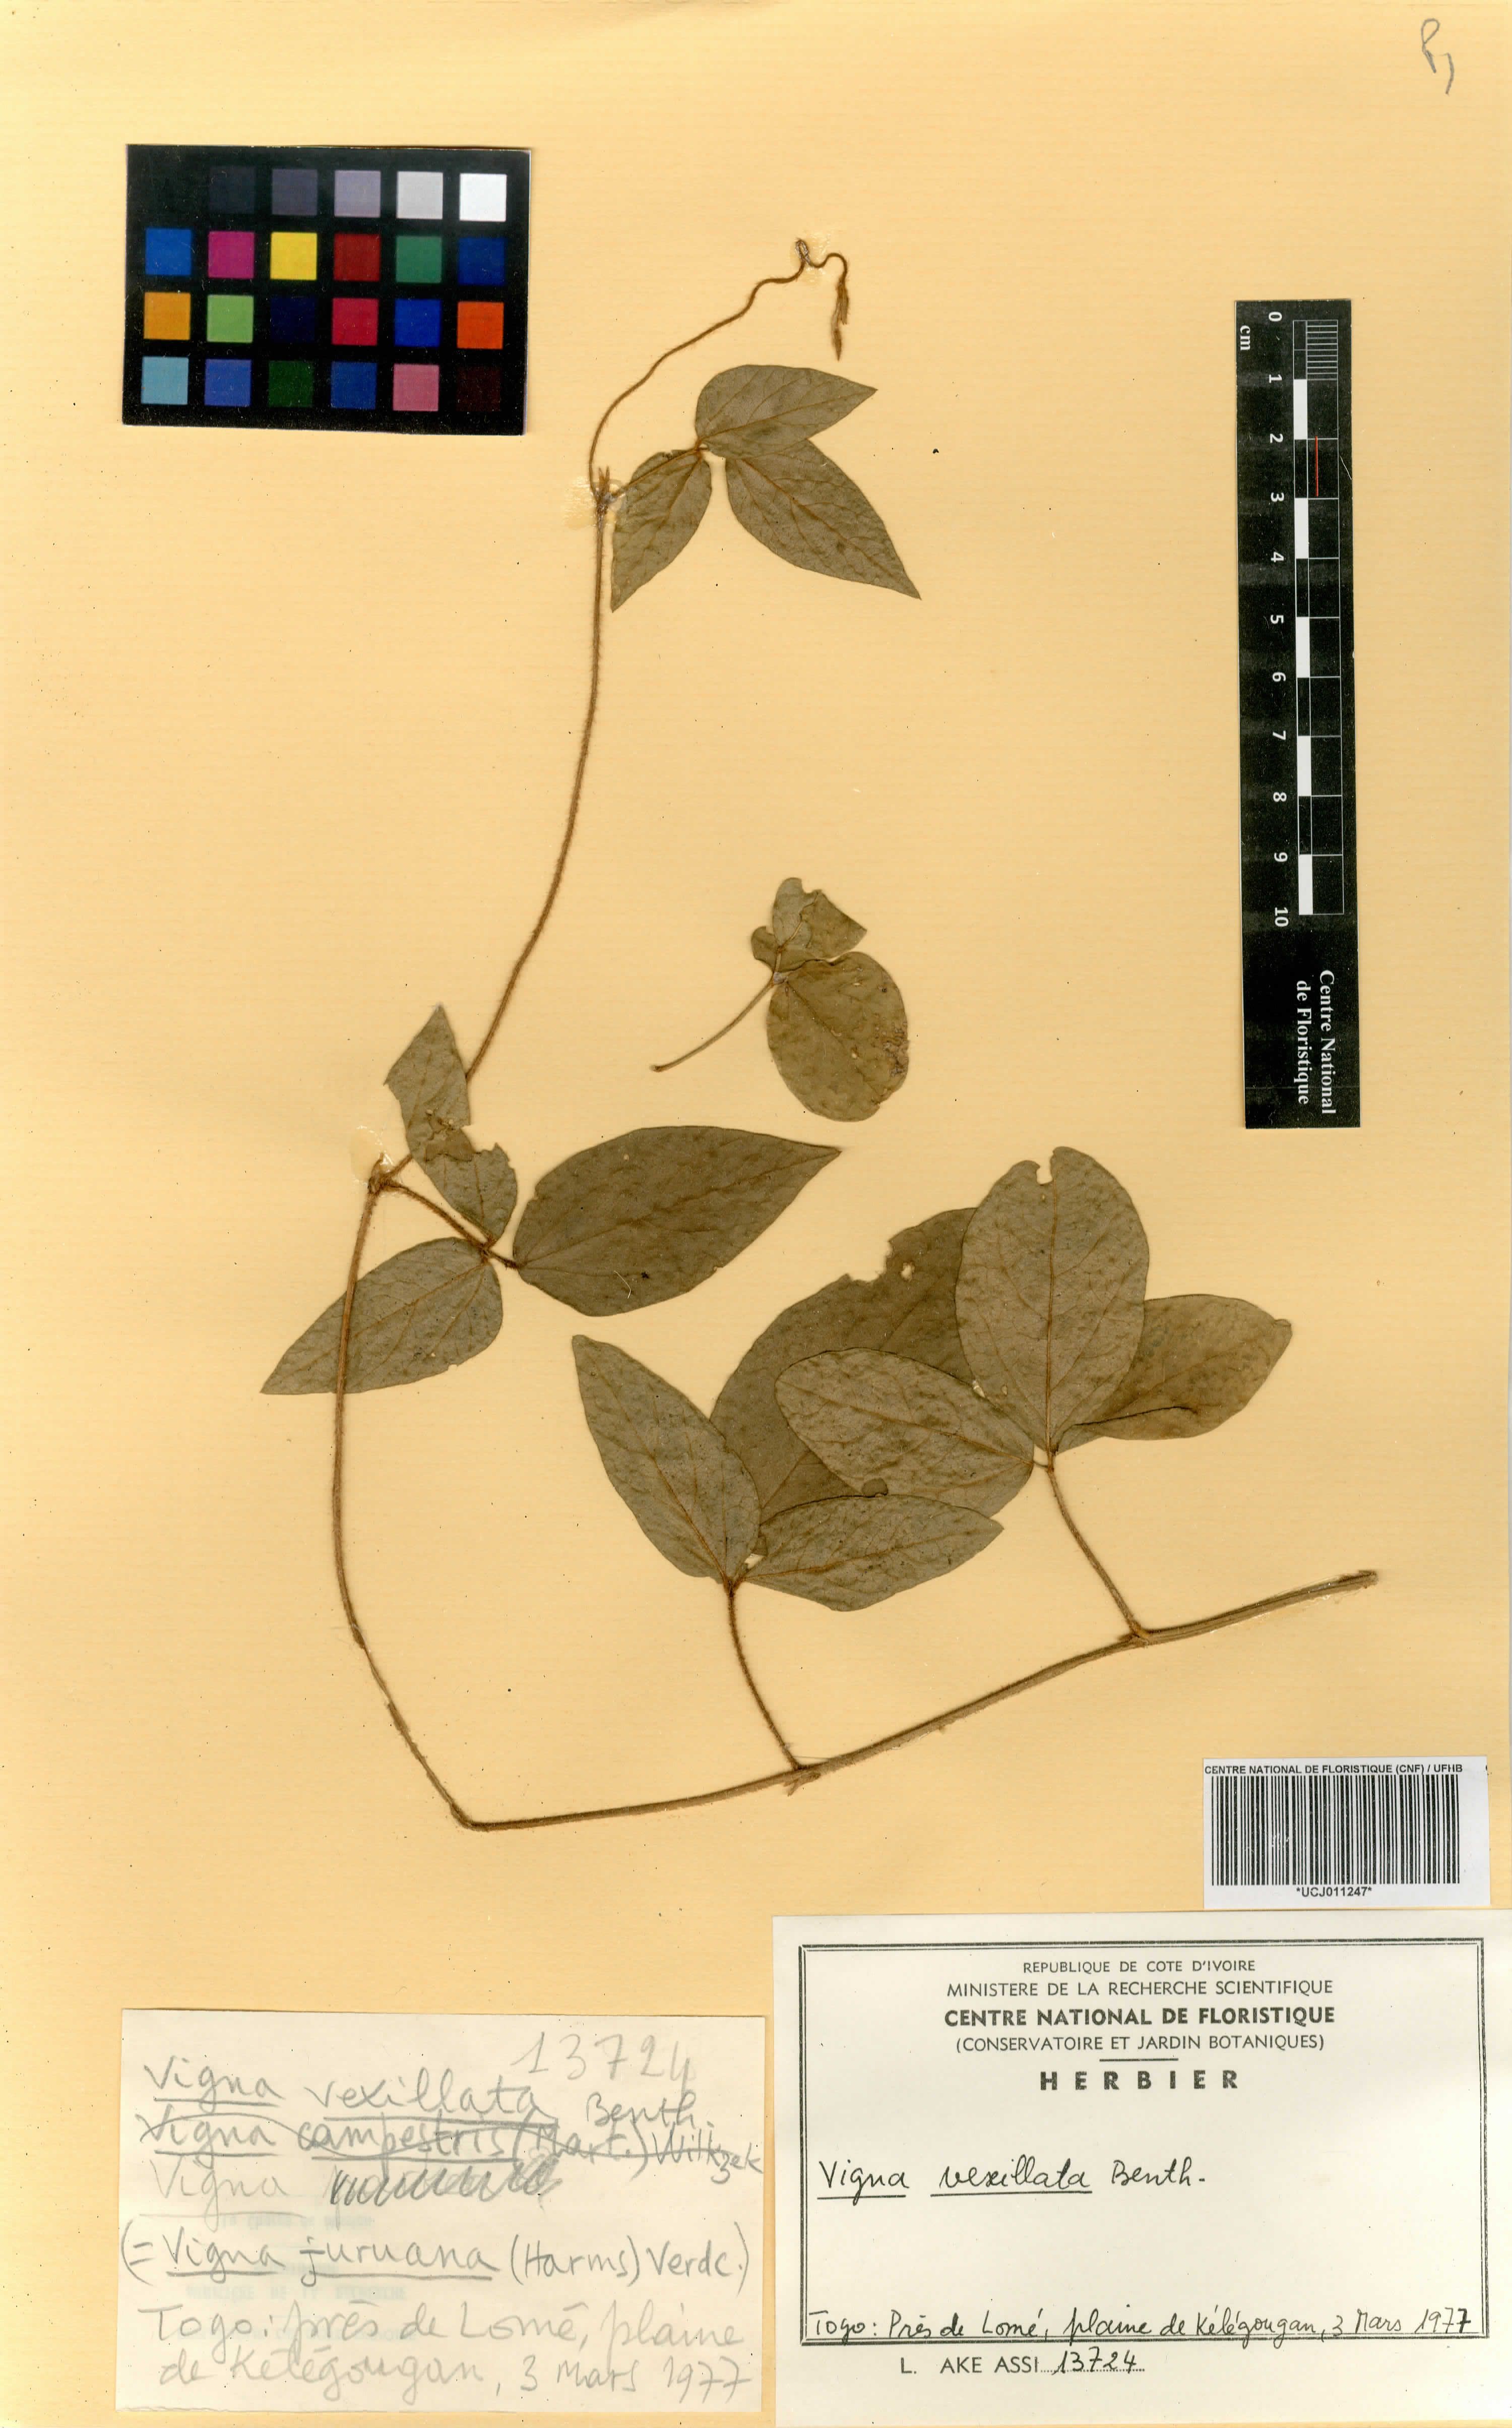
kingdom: Plantae
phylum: Tracheophyta
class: Magnoliopsida
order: Fabales
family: Fabaceae
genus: Vigna
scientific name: Vigna vexillata
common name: Zombi pea
